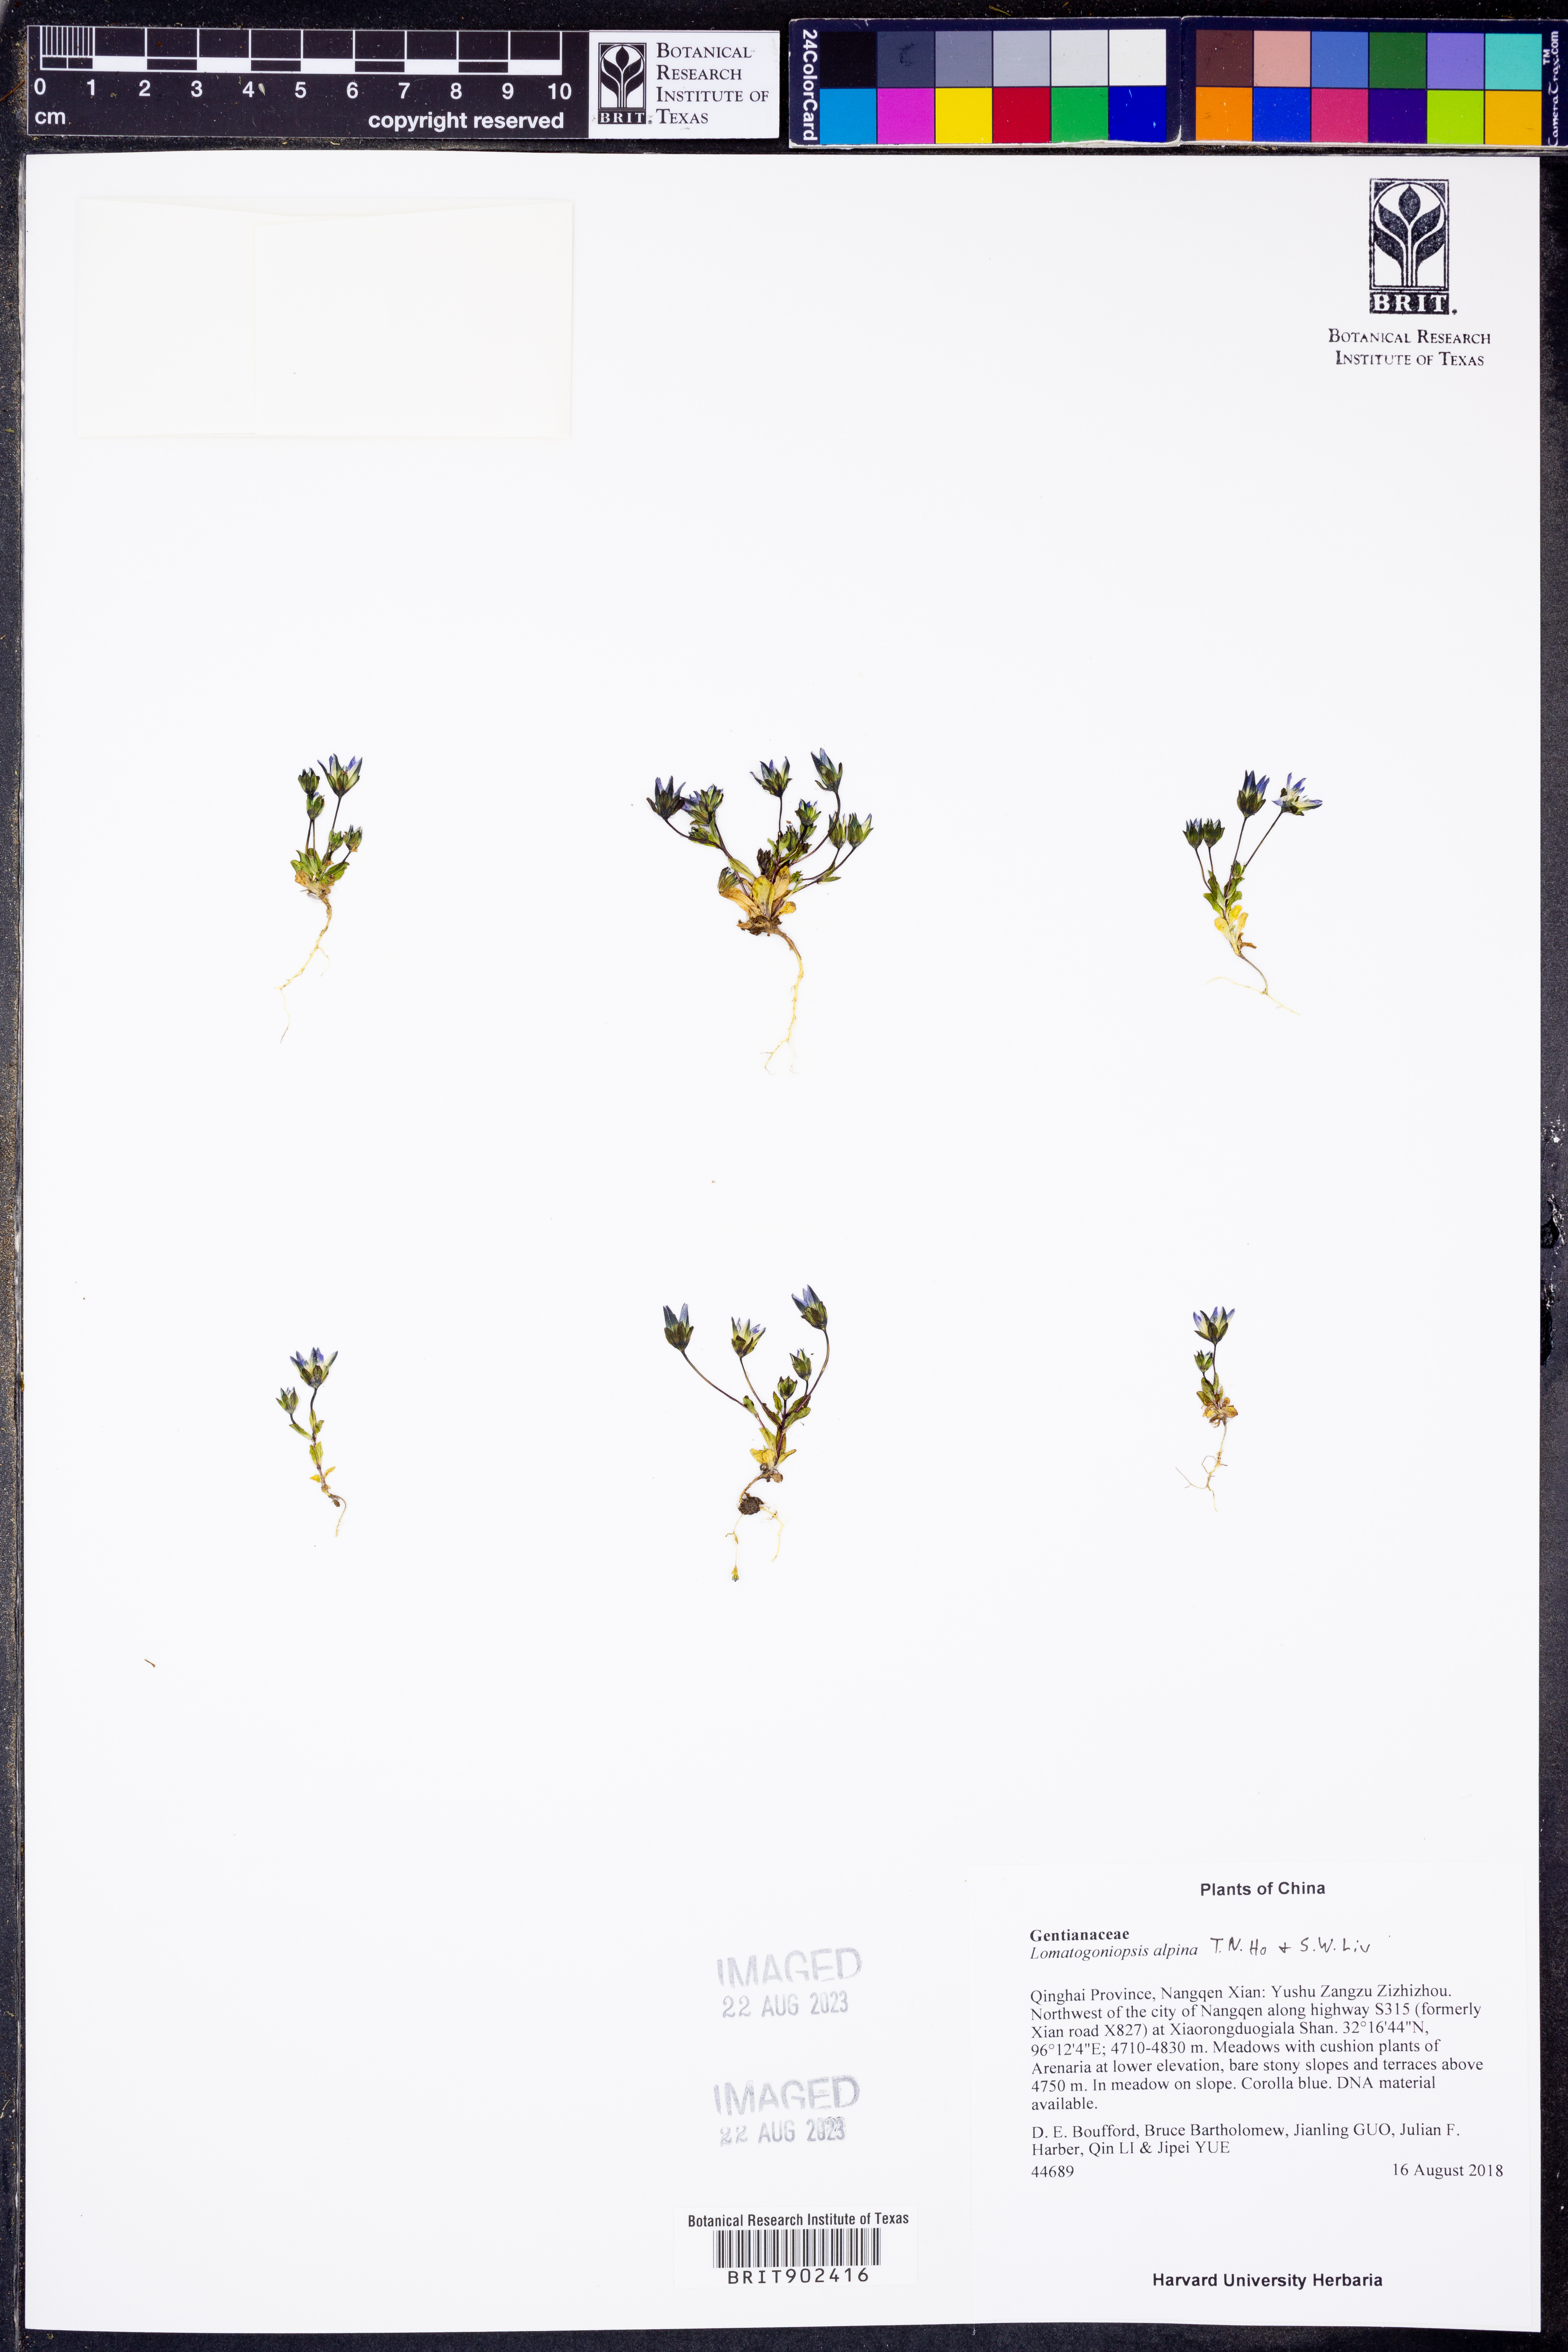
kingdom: Plantae
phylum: Tracheophyta
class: Magnoliopsida
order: Gentianales
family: Gentianaceae
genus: Lomatogonium
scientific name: Lomatogonium
